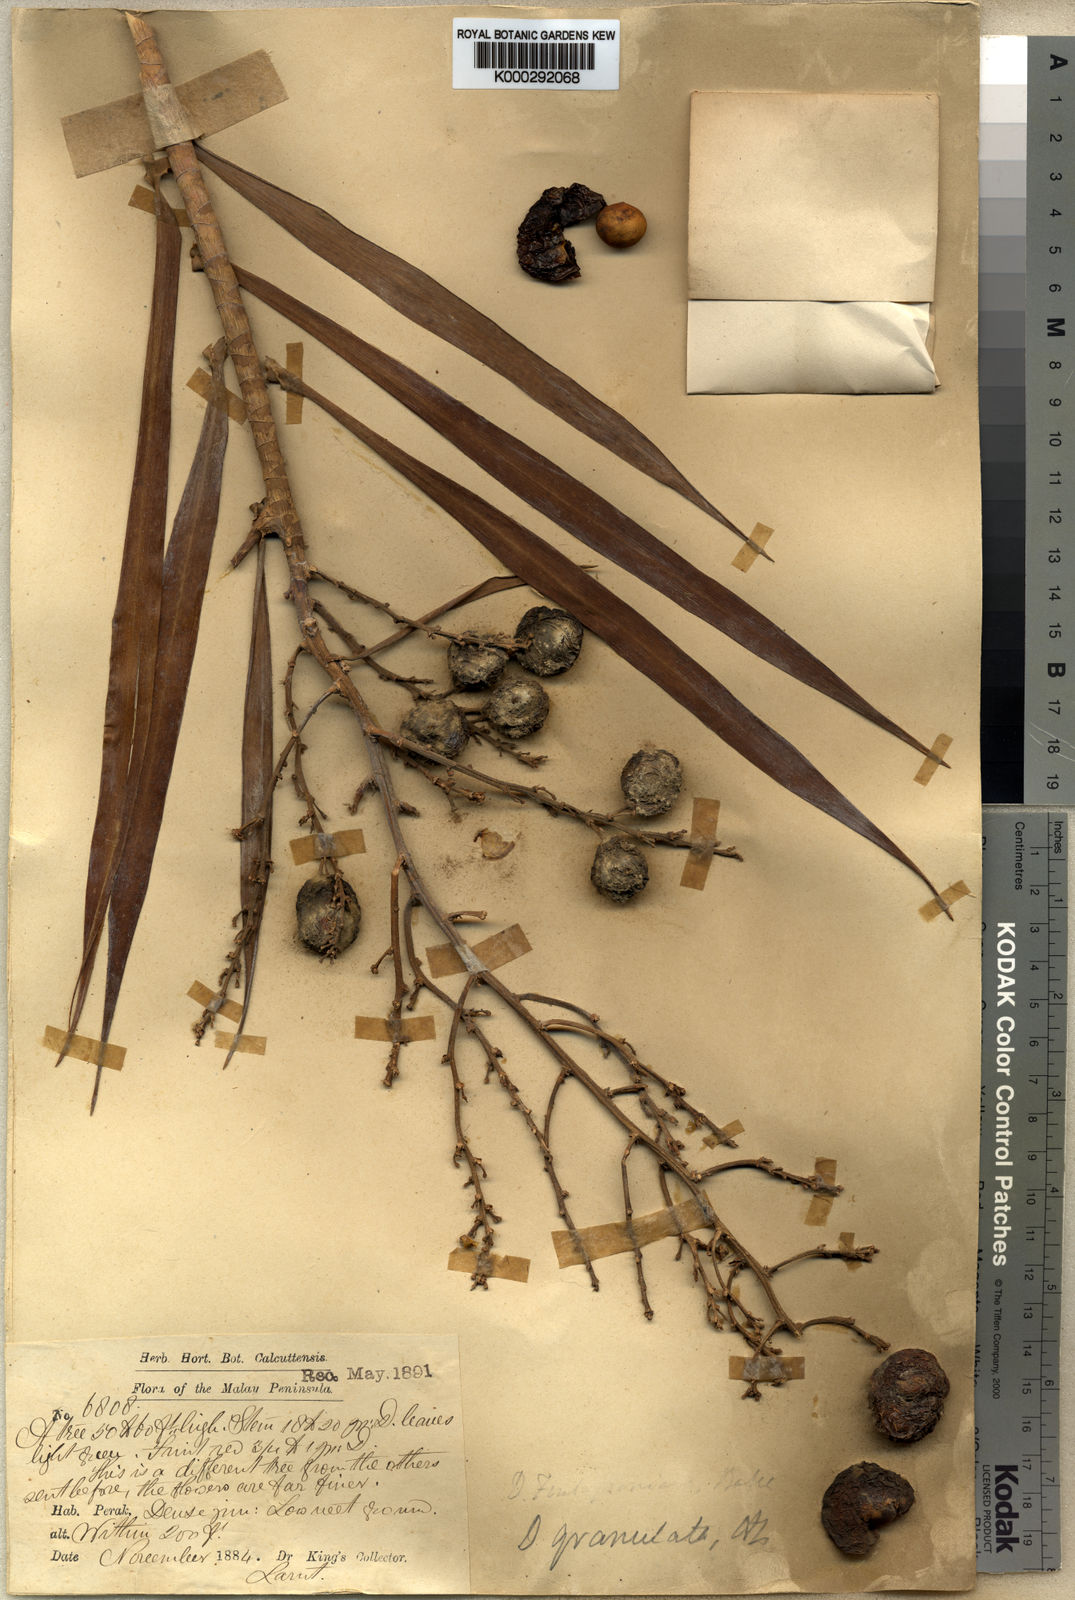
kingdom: Plantae
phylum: Tracheophyta
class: Liliopsida
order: Asparagales
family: Asparagaceae
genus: Dracaena
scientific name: Dracaena granulata
